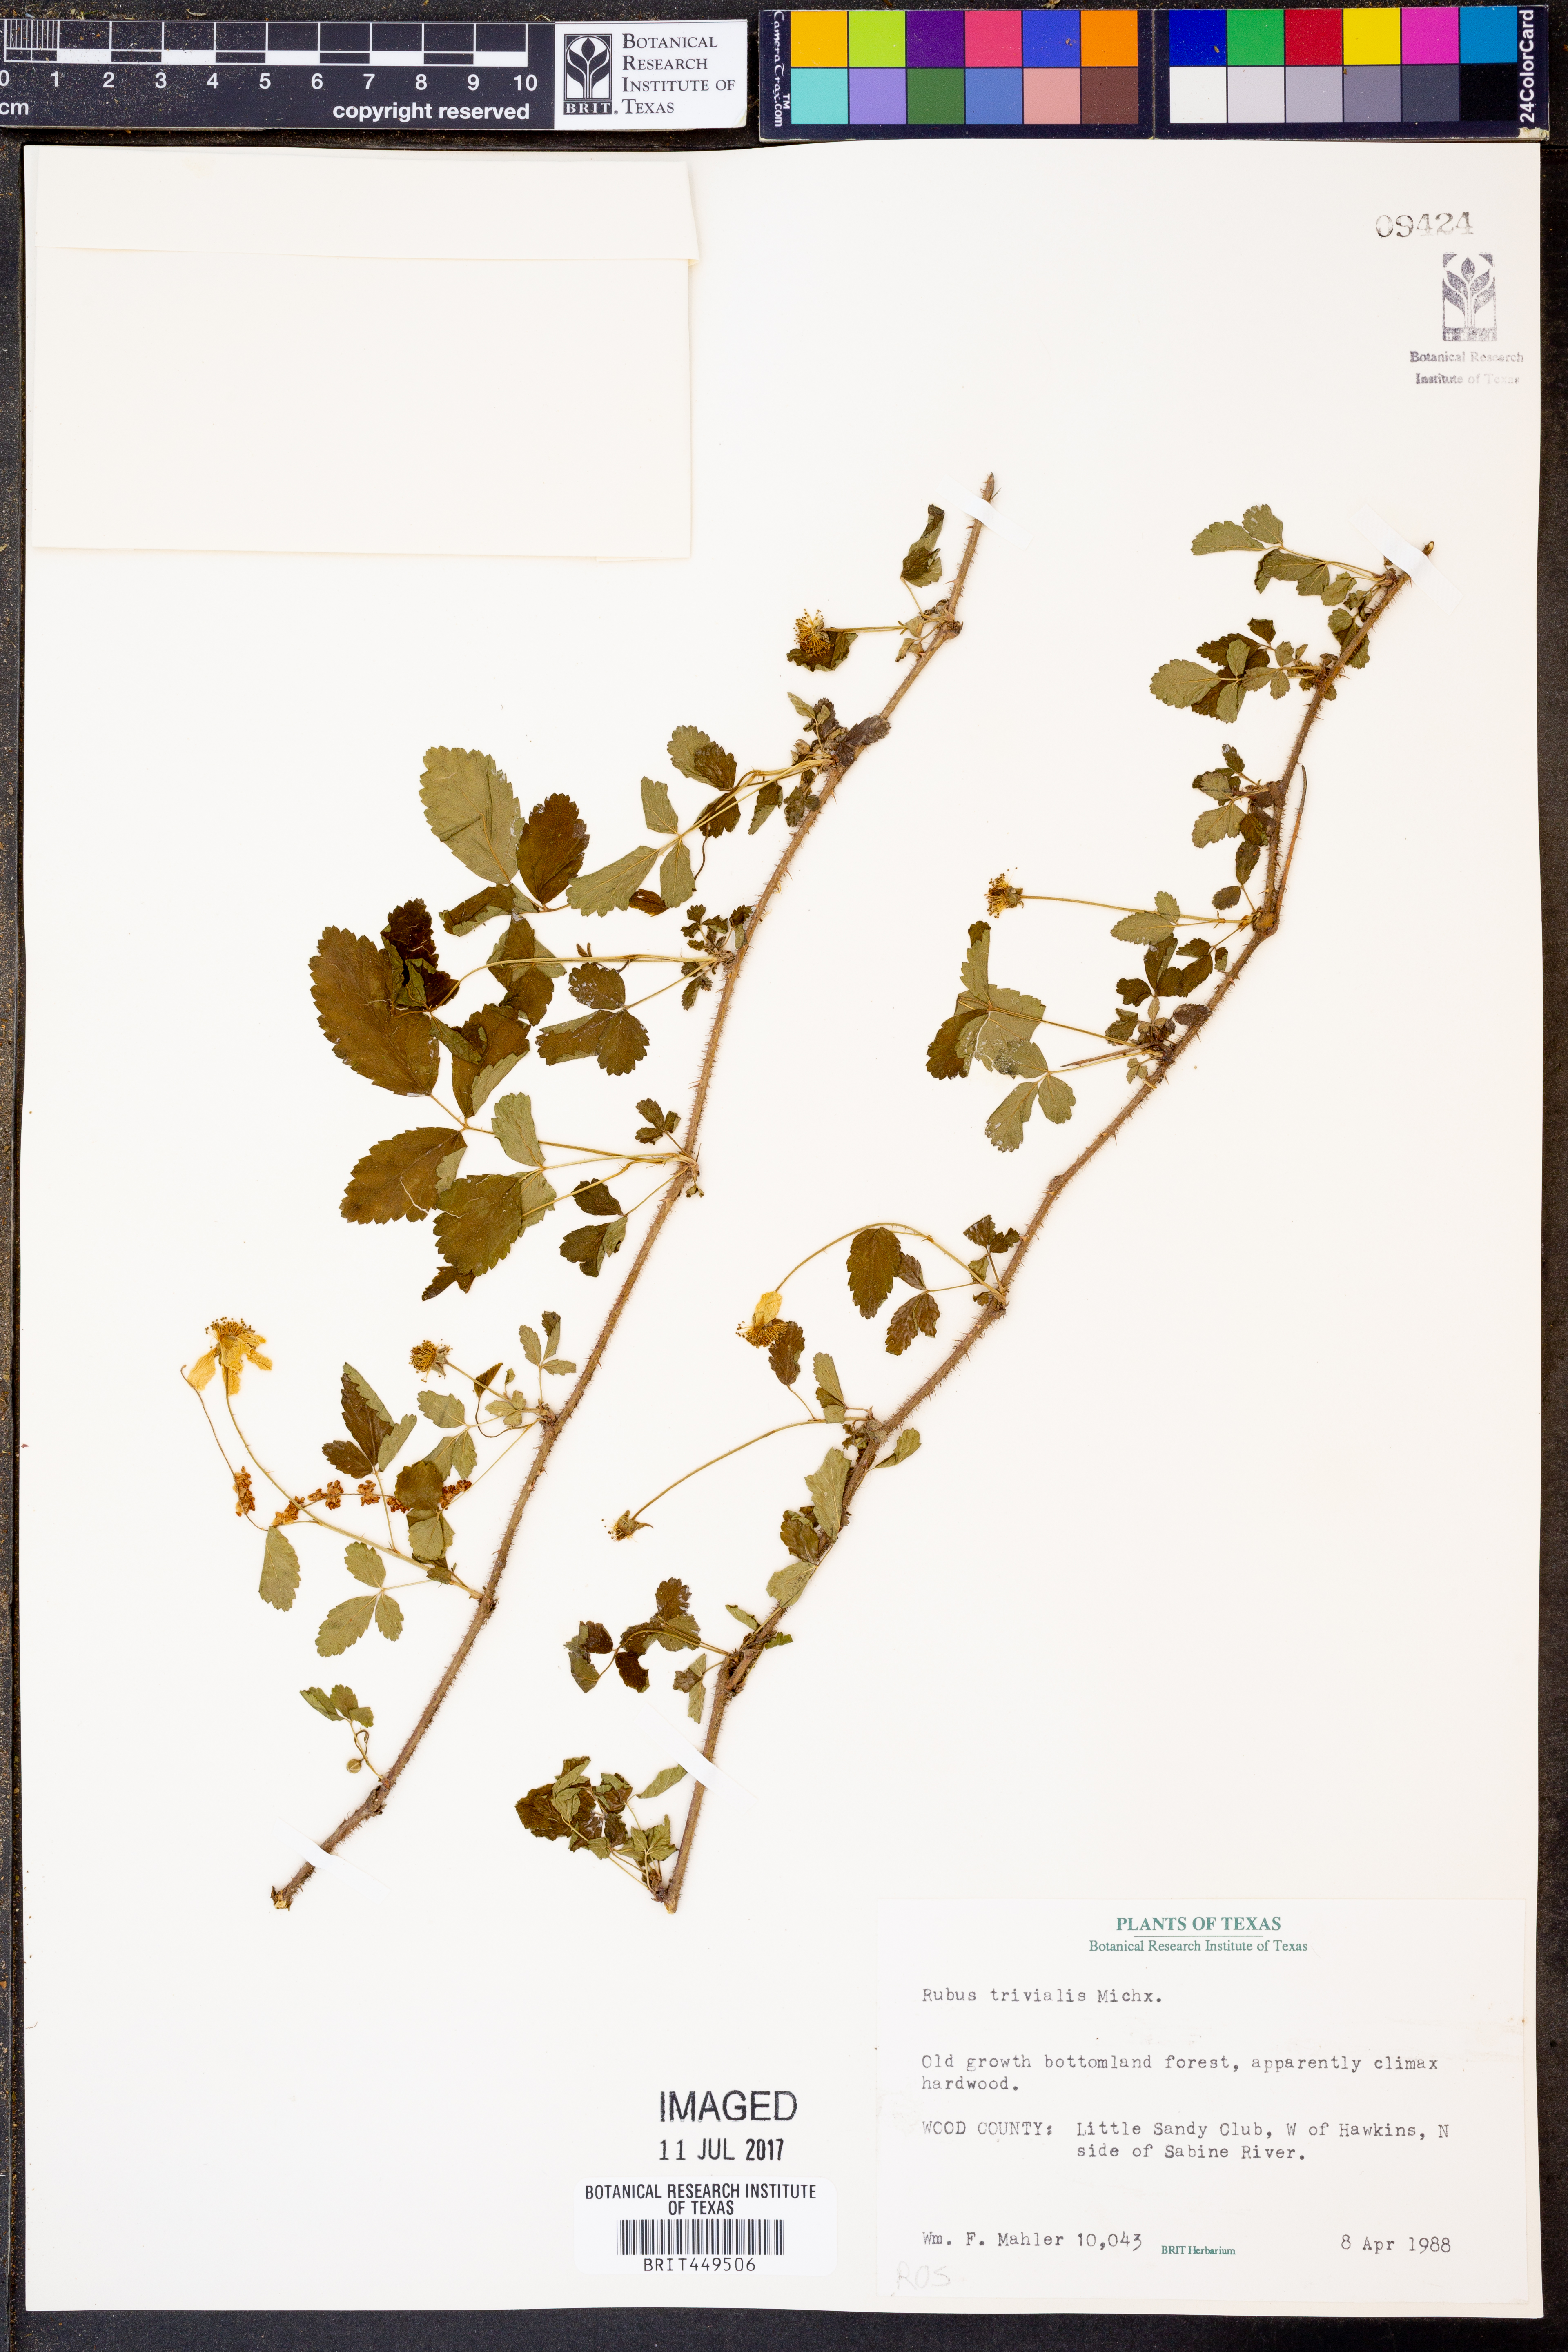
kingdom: Plantae
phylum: Tracheophyta
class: Magnoliopsida
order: Rosales
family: Rosaceae
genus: Rubus
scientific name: Rubus trivialis
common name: Southern dewberry
